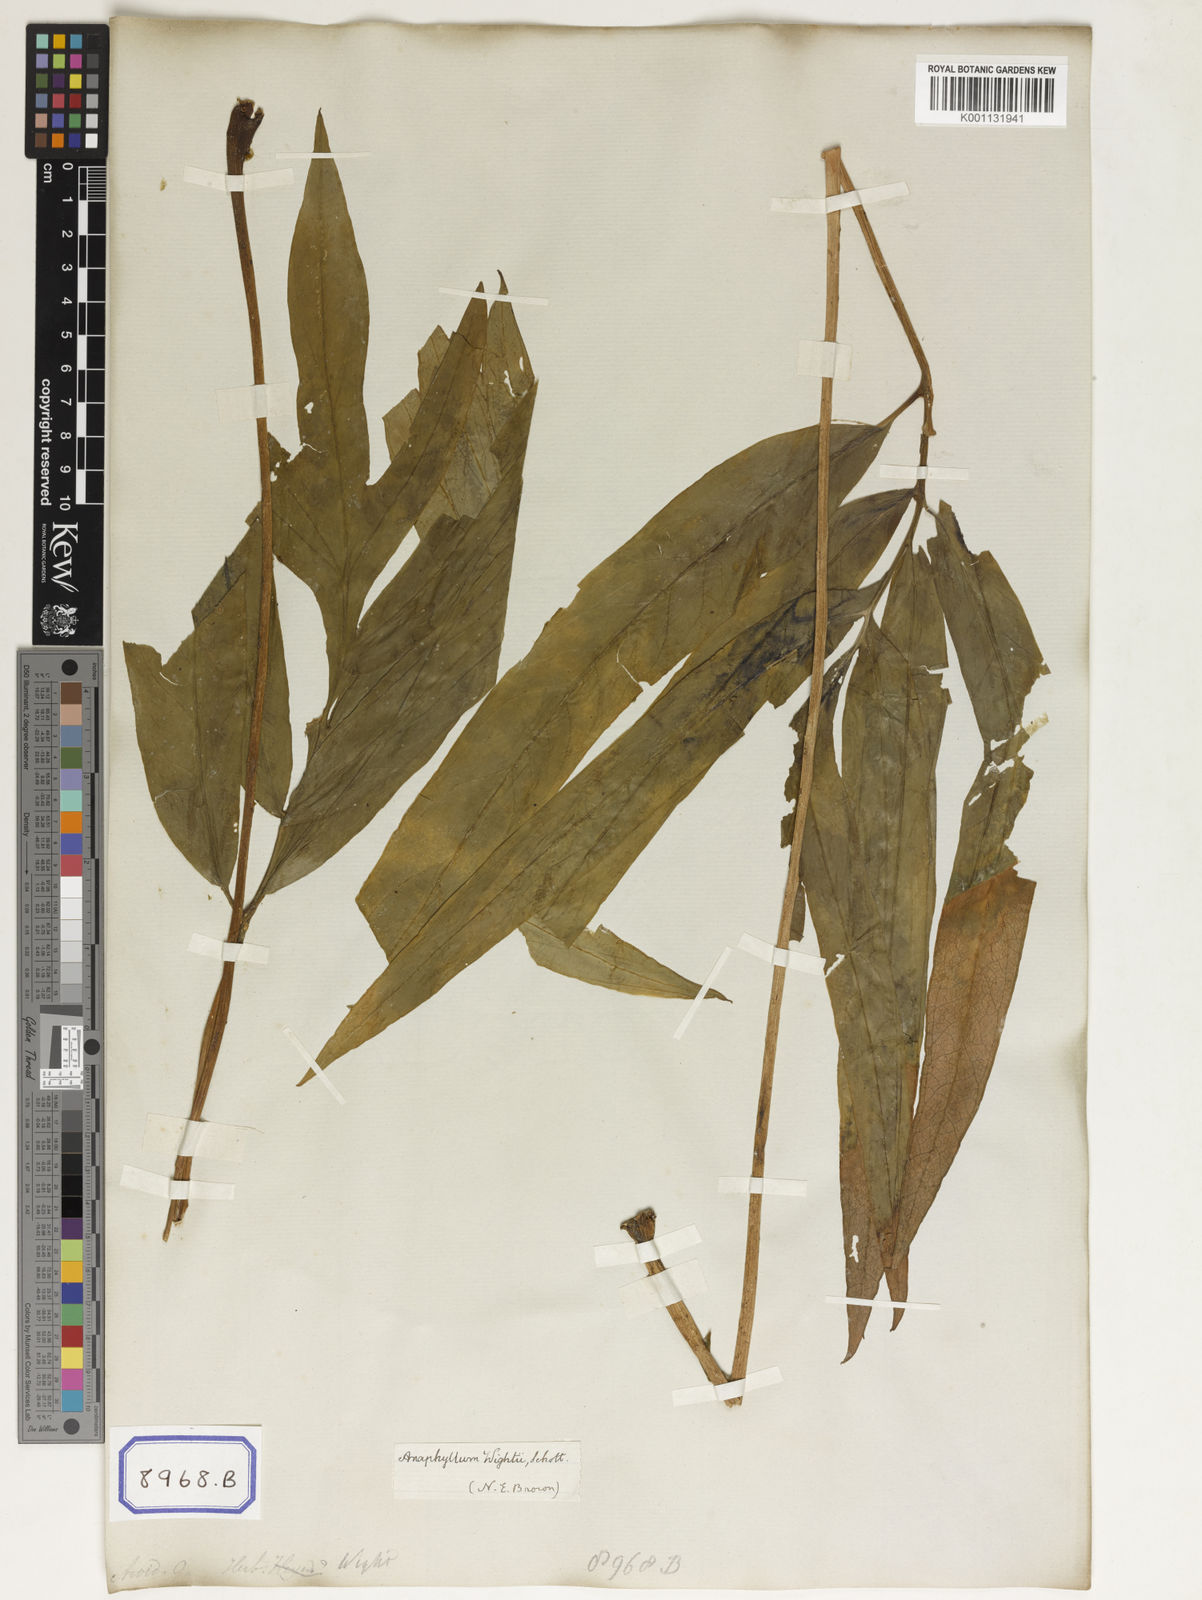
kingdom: Plantae
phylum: Tracheophyta
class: Liliopsida
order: Alismatales
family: Araceae
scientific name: Araceae
